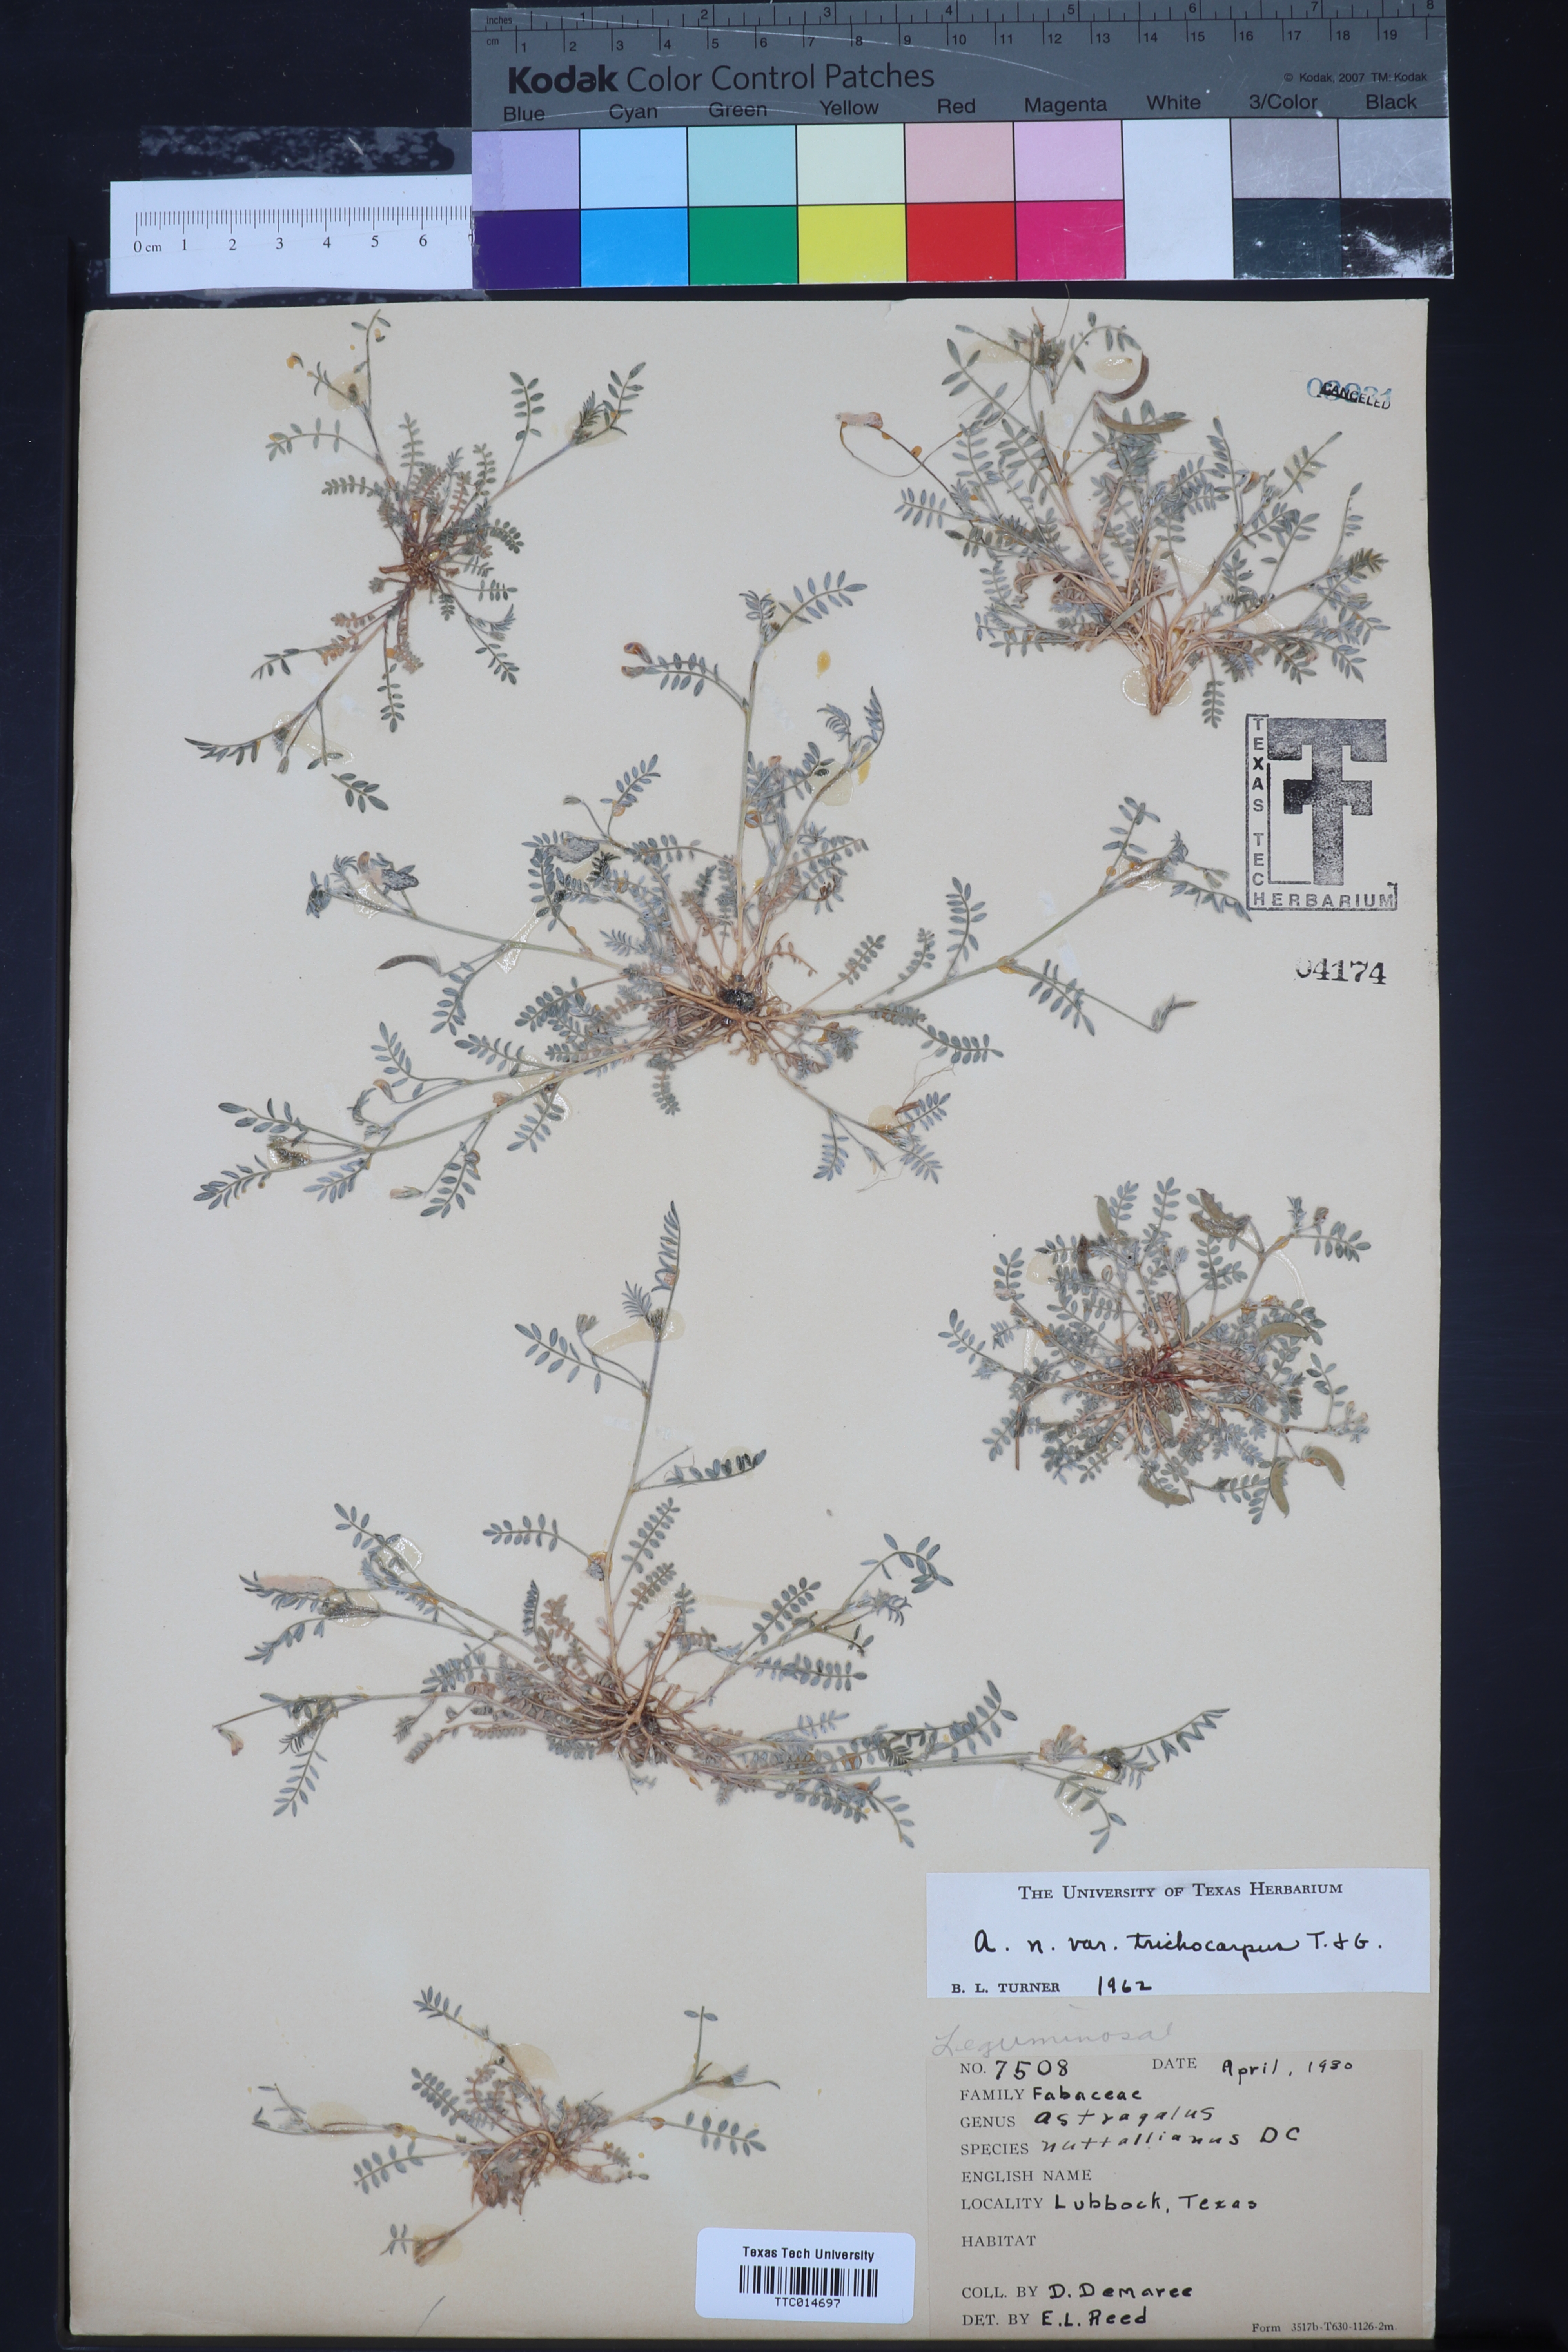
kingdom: Plantae
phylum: Tracheophyta
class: Magnoliopsida
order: Fabales
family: Fabaceae
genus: Astragalus
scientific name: Astragalus nuttallianus
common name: Smallflowered milkvetch
